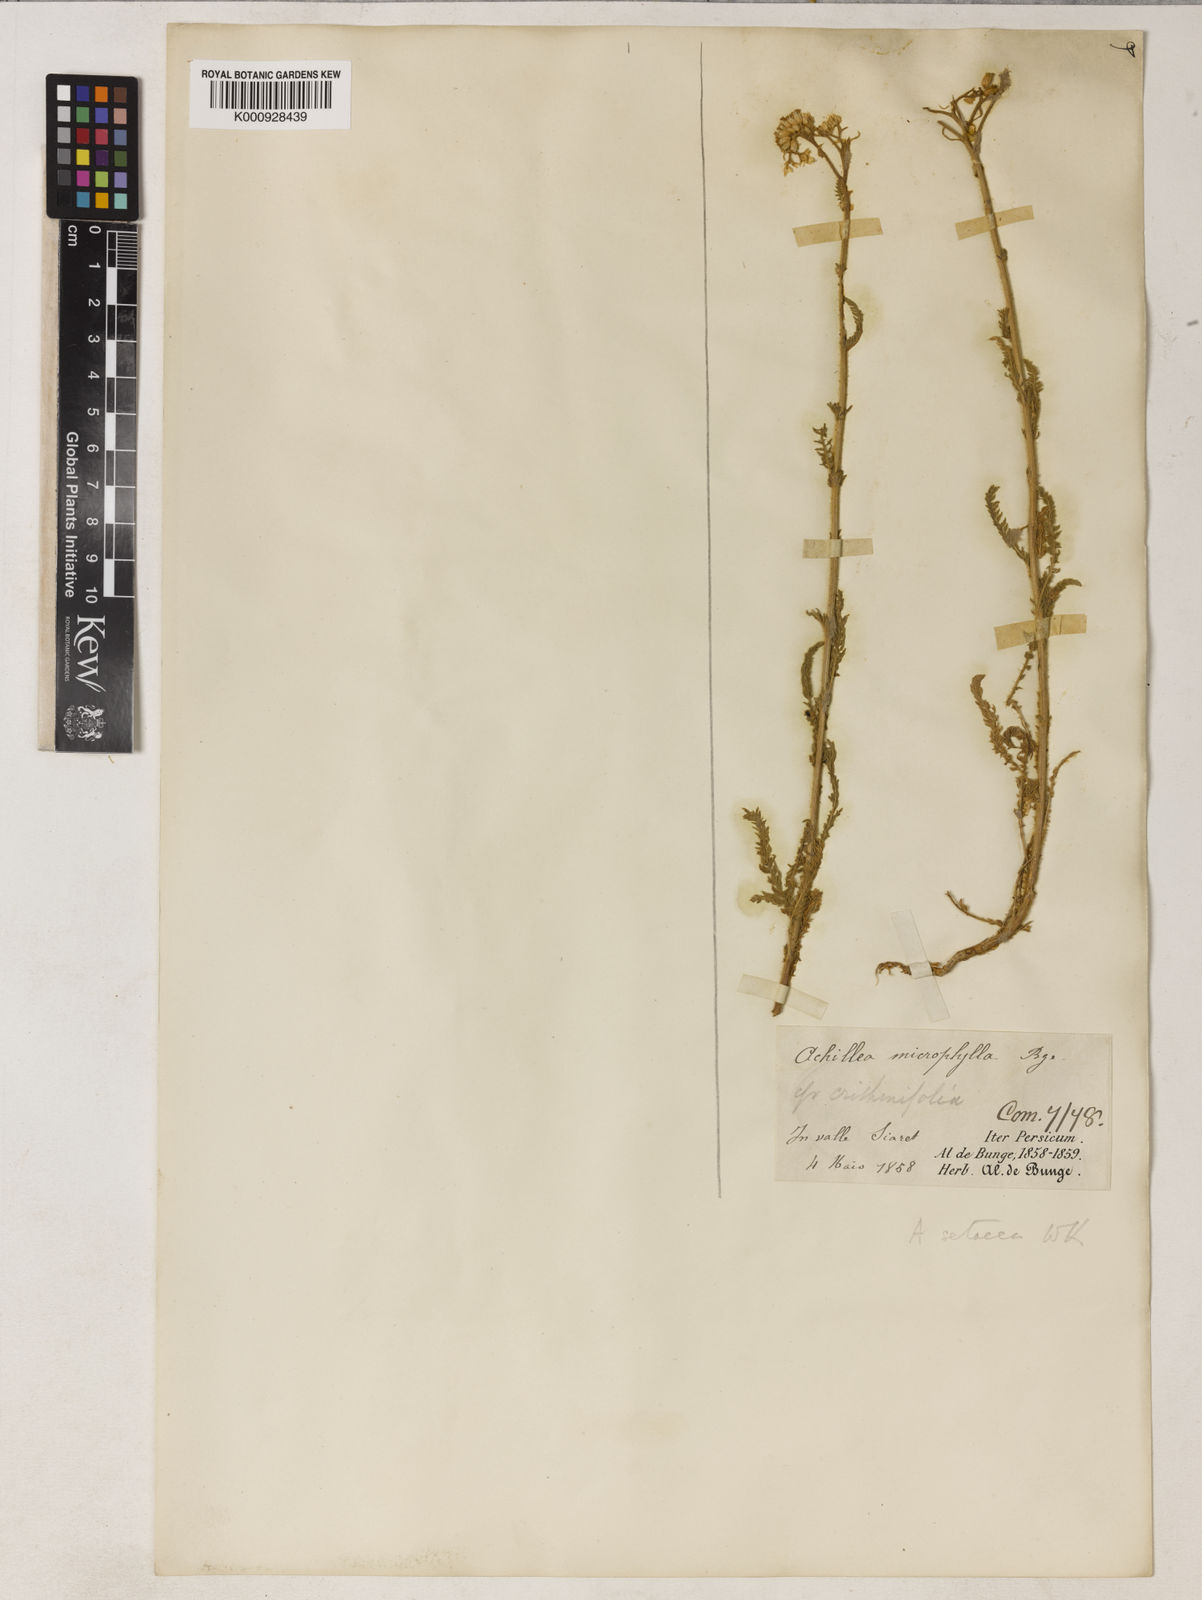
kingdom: Plantae
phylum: Tracheophyta
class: Magnoliopsida
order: Asterales
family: Asteraceae
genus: Achillea
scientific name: Achillea setacea
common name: Bristly yarrow
